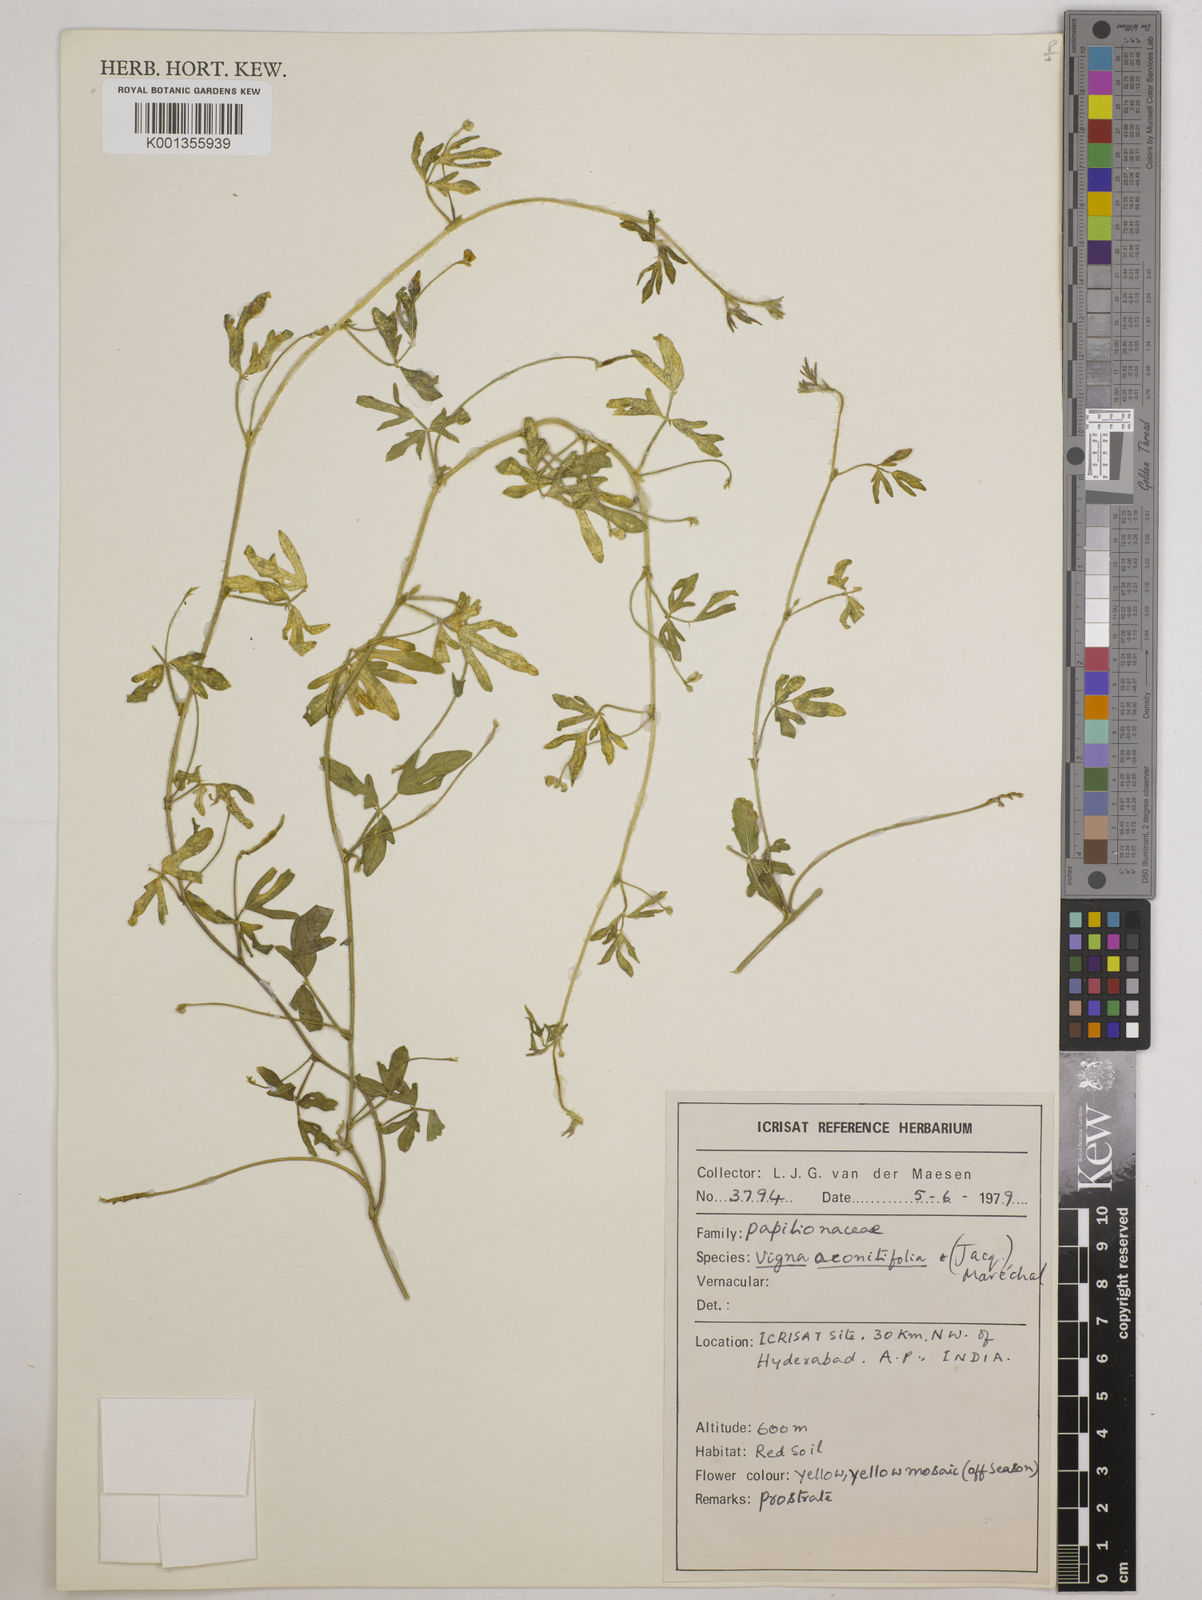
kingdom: Plantae
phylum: Tracheophyta
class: Magnoliopsida
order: Fabales
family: Fabaceae
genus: Vigna
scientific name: Vigna aconitifolia
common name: Dew bean
